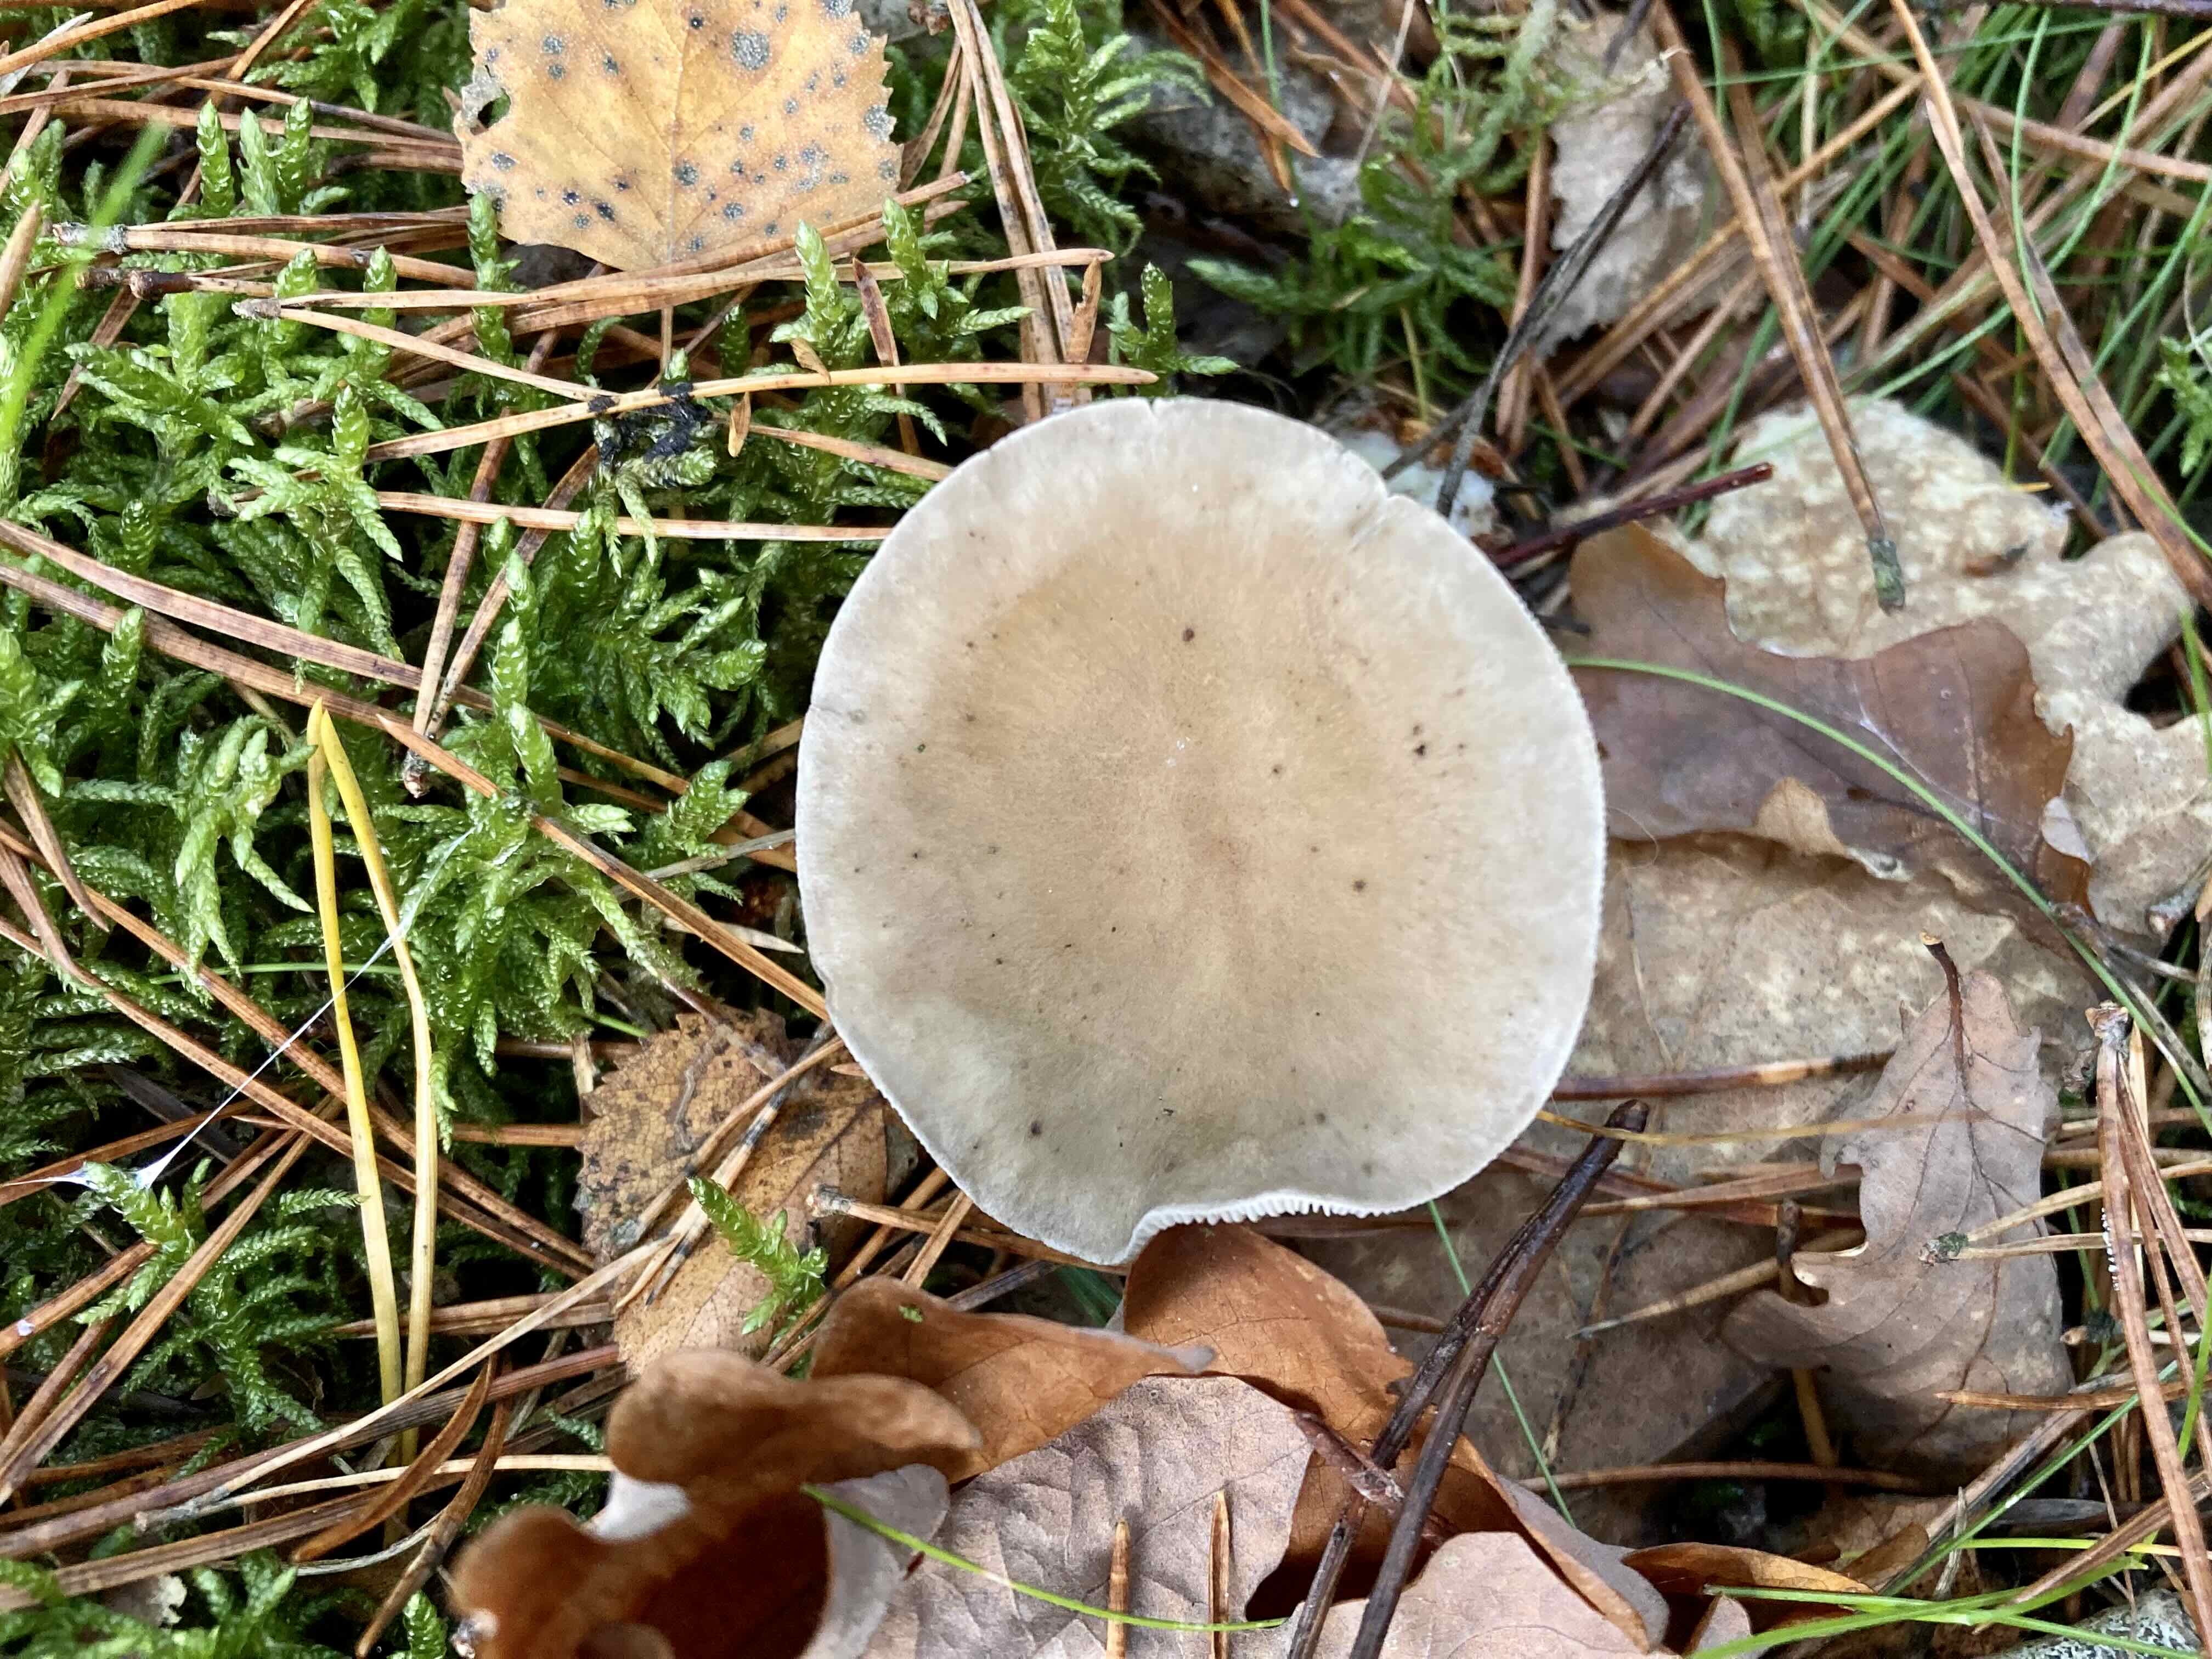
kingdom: Fungi
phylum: Basidiomycota
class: Agaricomycetes
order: Agaricales
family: Hygrophoraceae
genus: Ampulloclitocybe
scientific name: Ampulloclitocybe clavipes
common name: køllefod
